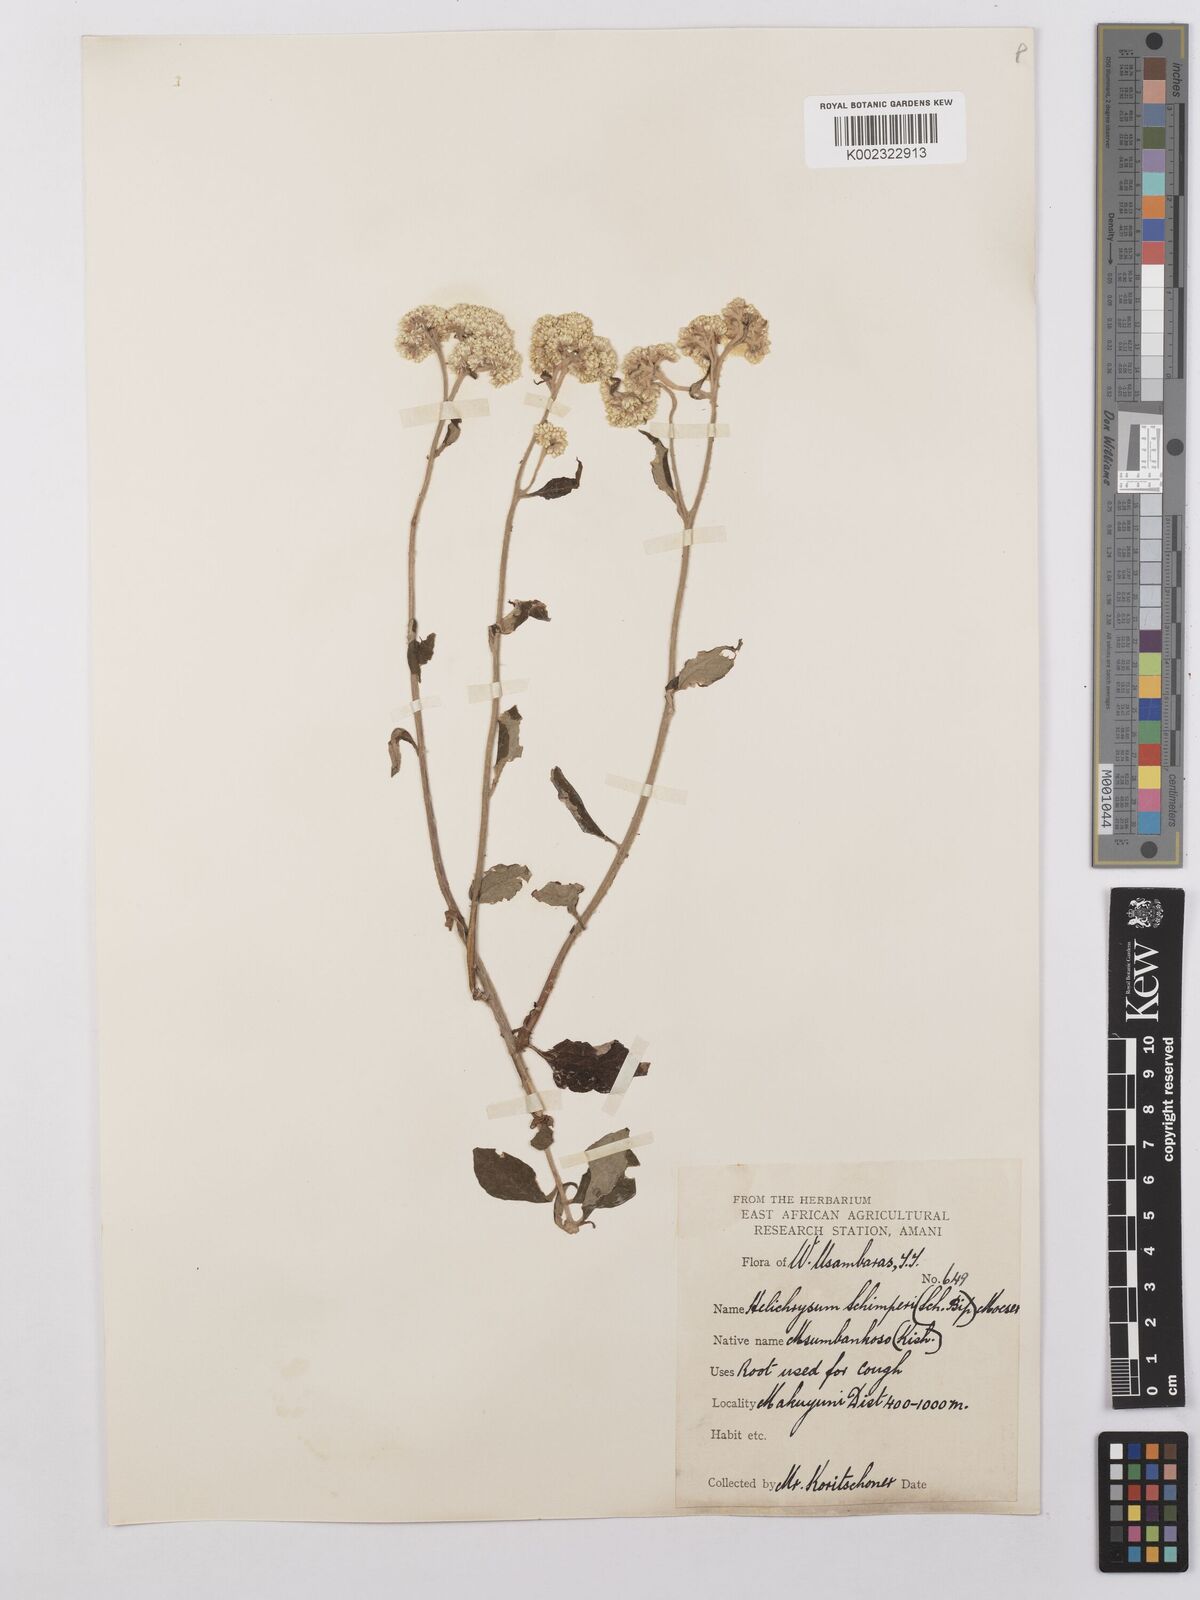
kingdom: Plantae
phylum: Tracheophyta
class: Magnoliopsida
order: Asterales
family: Asteraceae
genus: Helichrysum
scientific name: Helichrysum schimperi
